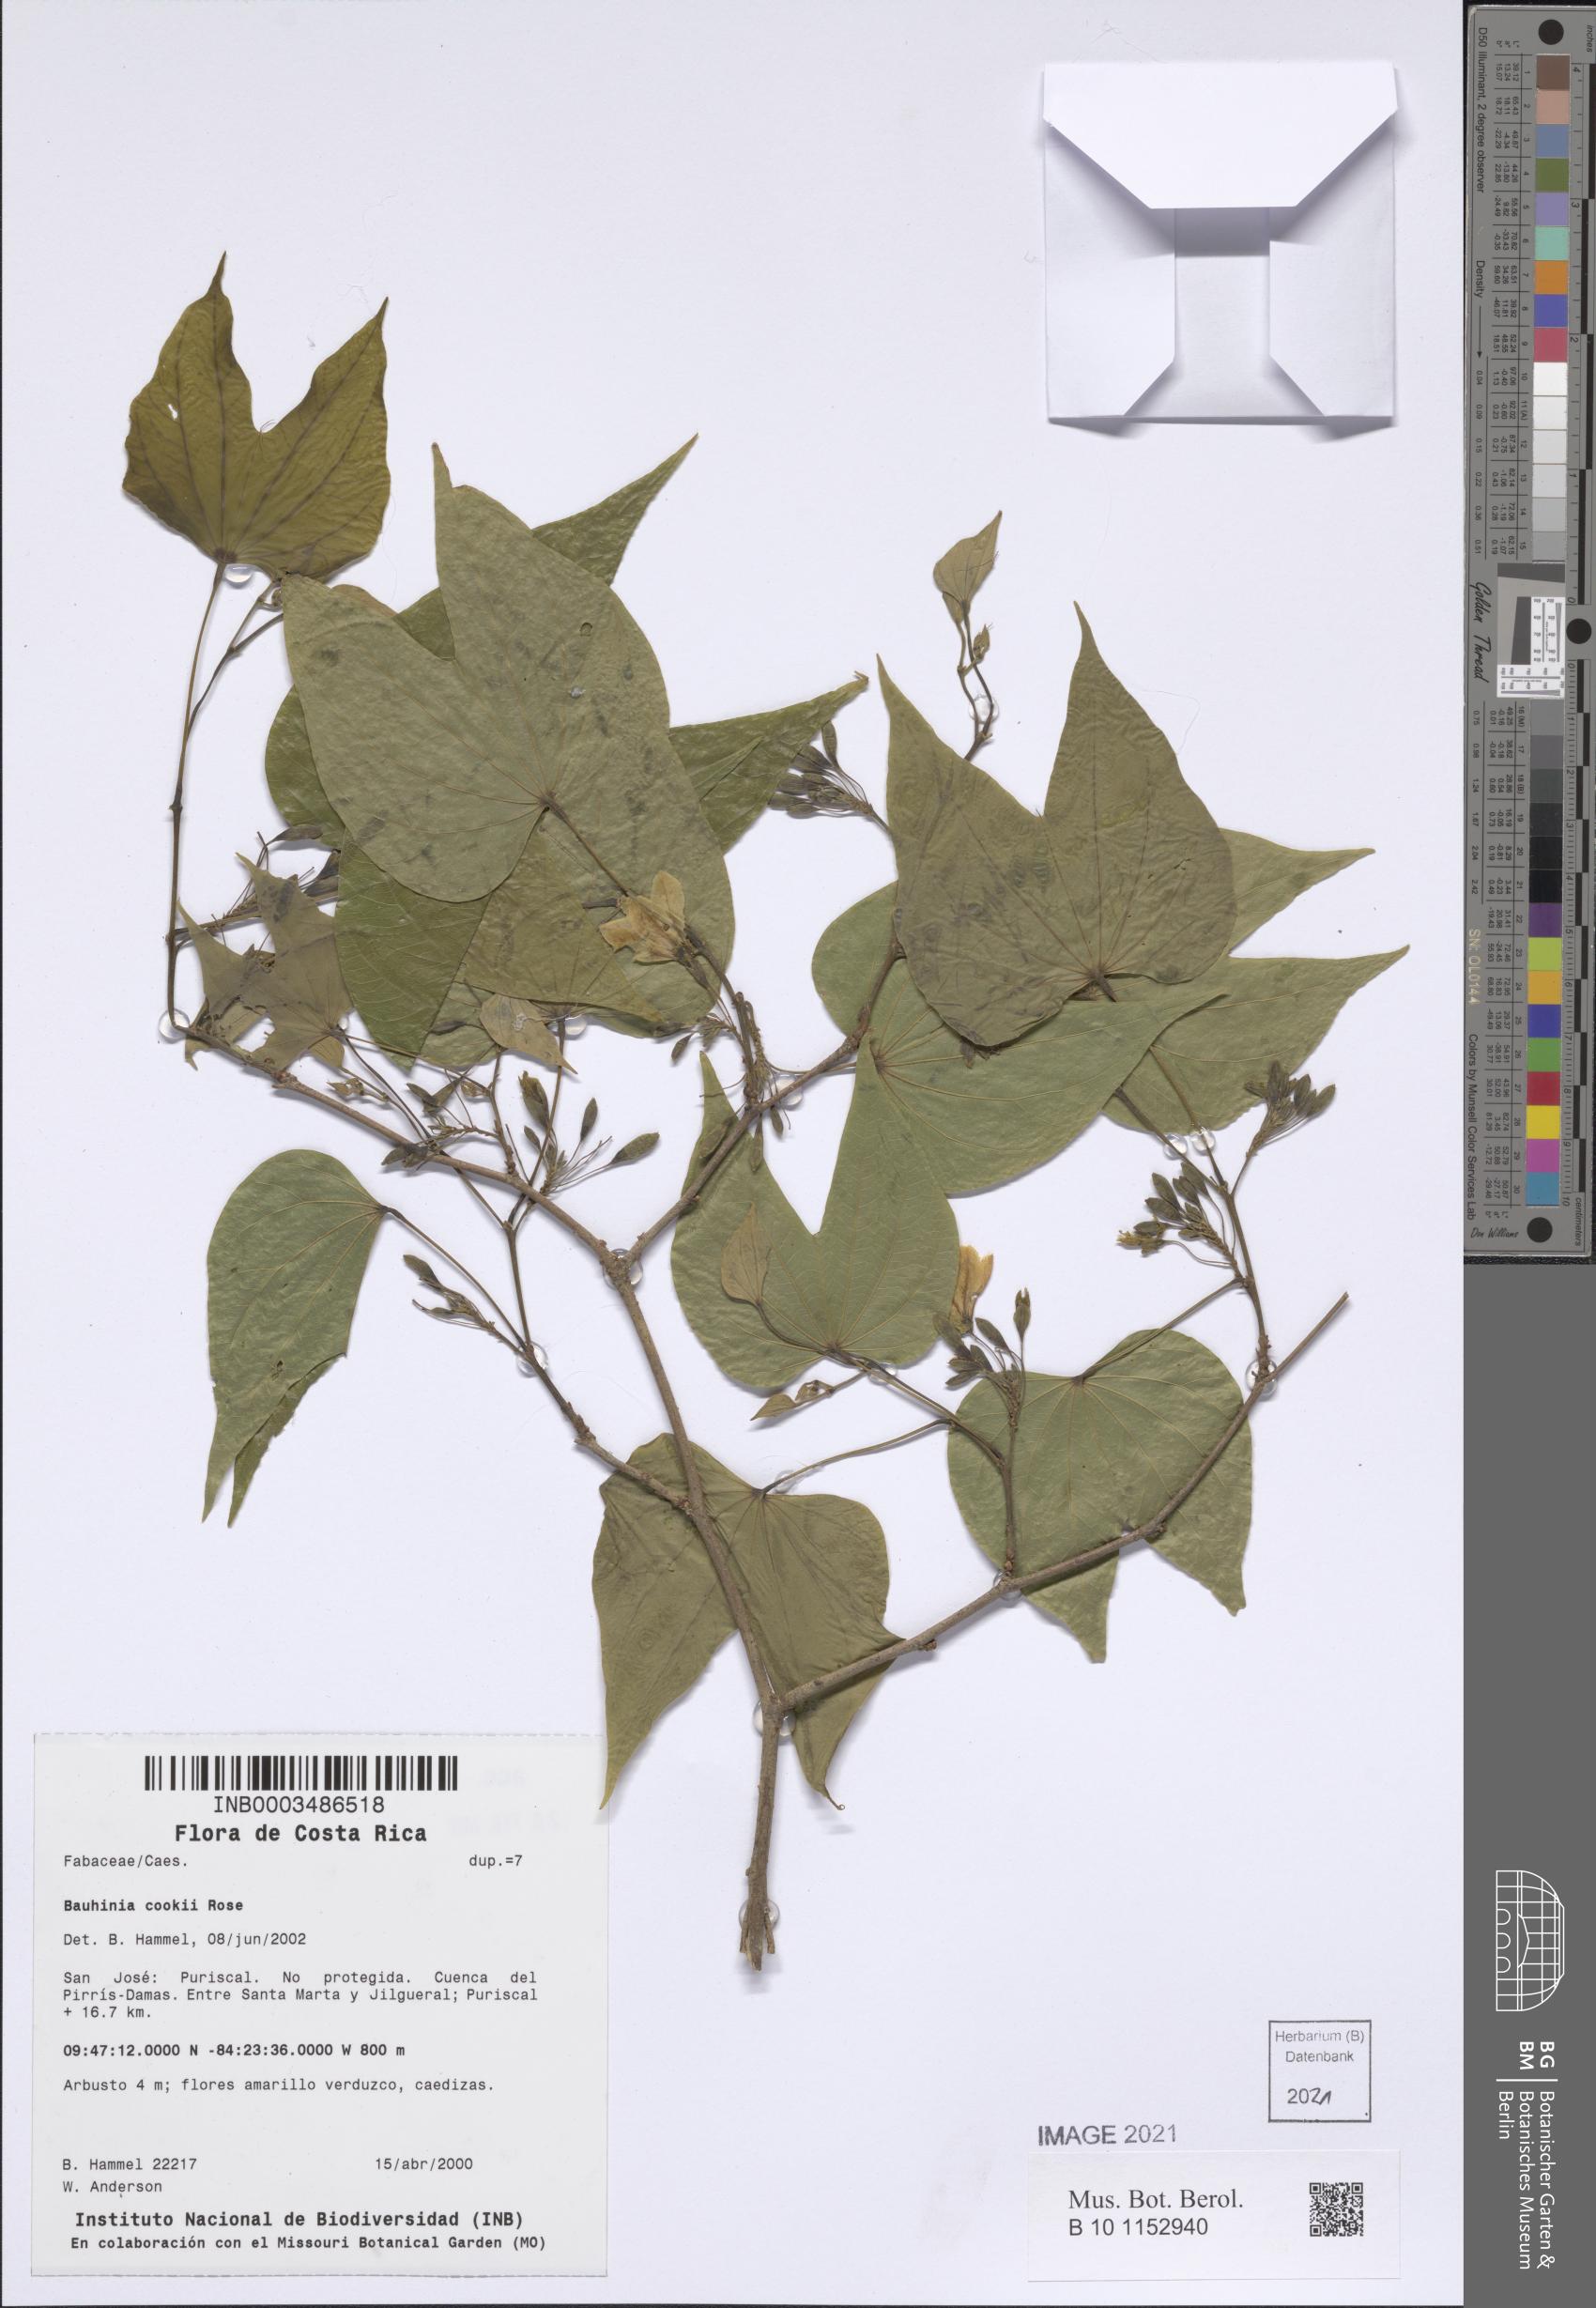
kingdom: Plantae
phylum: Tracheophyta
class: Magnoliopsida
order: Fabales
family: Fabaceae
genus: Bauhinia
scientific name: Bauhinia cookii
